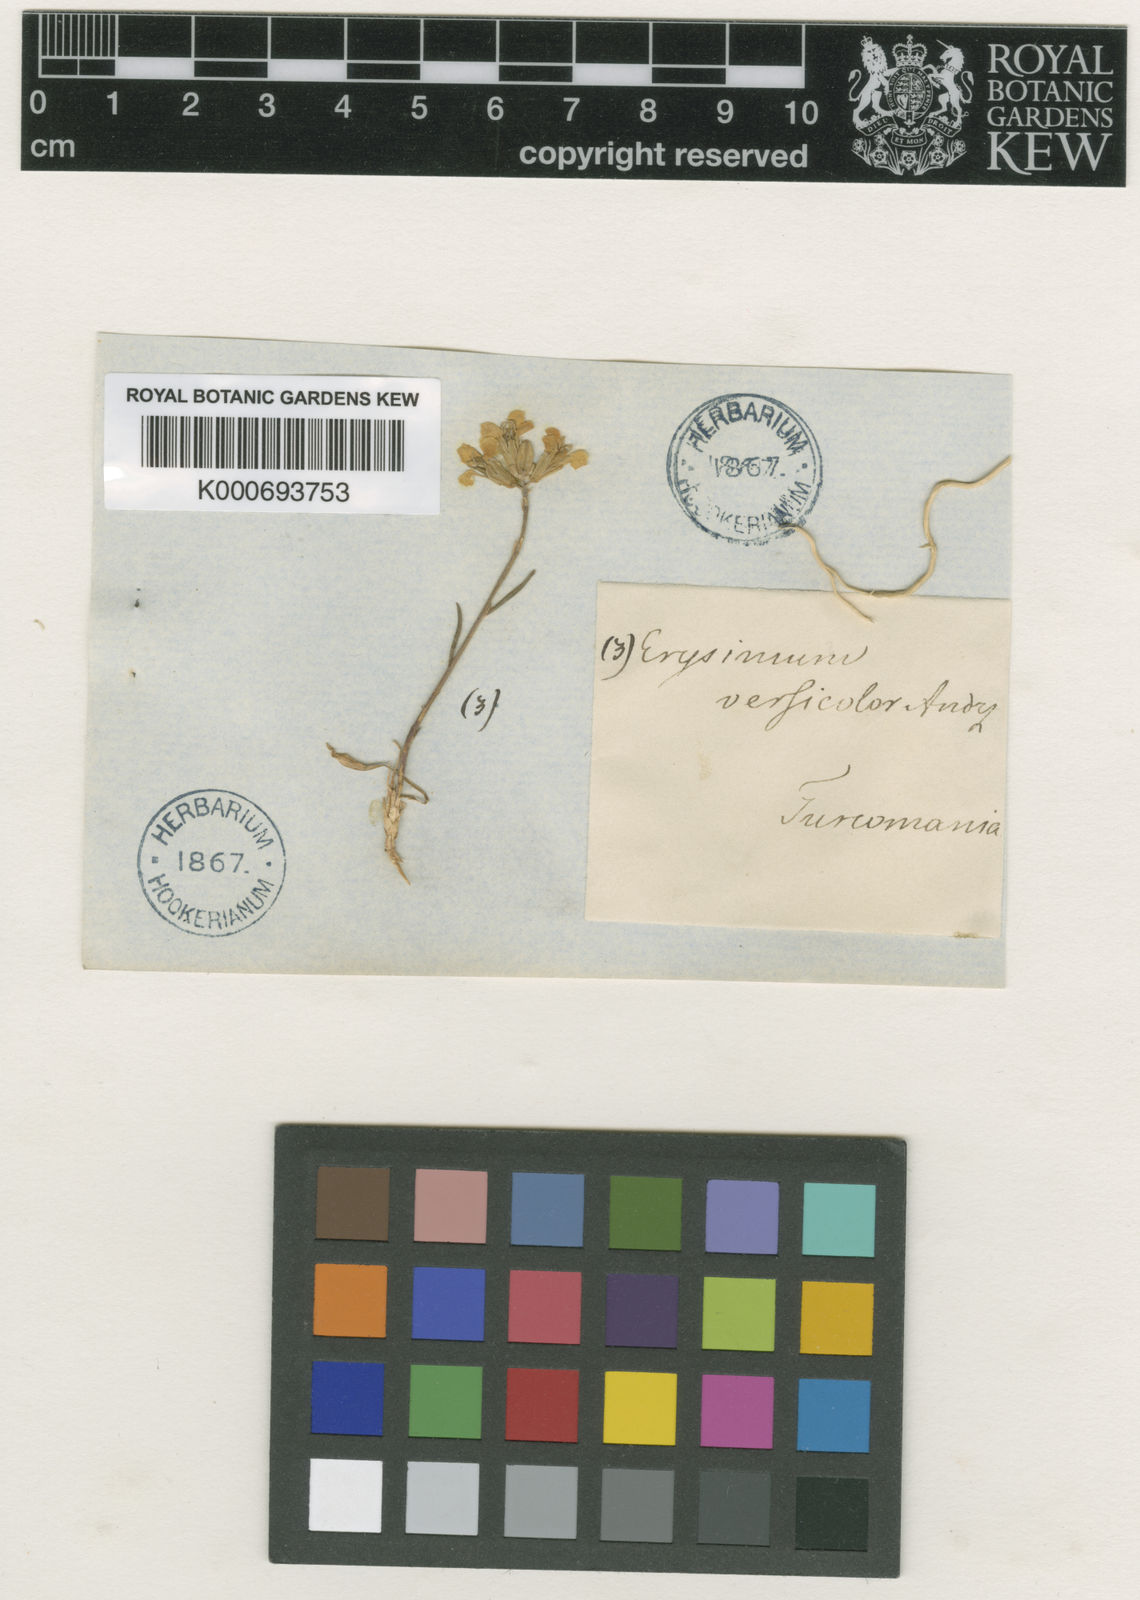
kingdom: Plantae
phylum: Tracheophyta
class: Magnoliopsida
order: Brassicales
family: Brassicaceae
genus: Erysimum
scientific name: Erysimum leucanthemum
